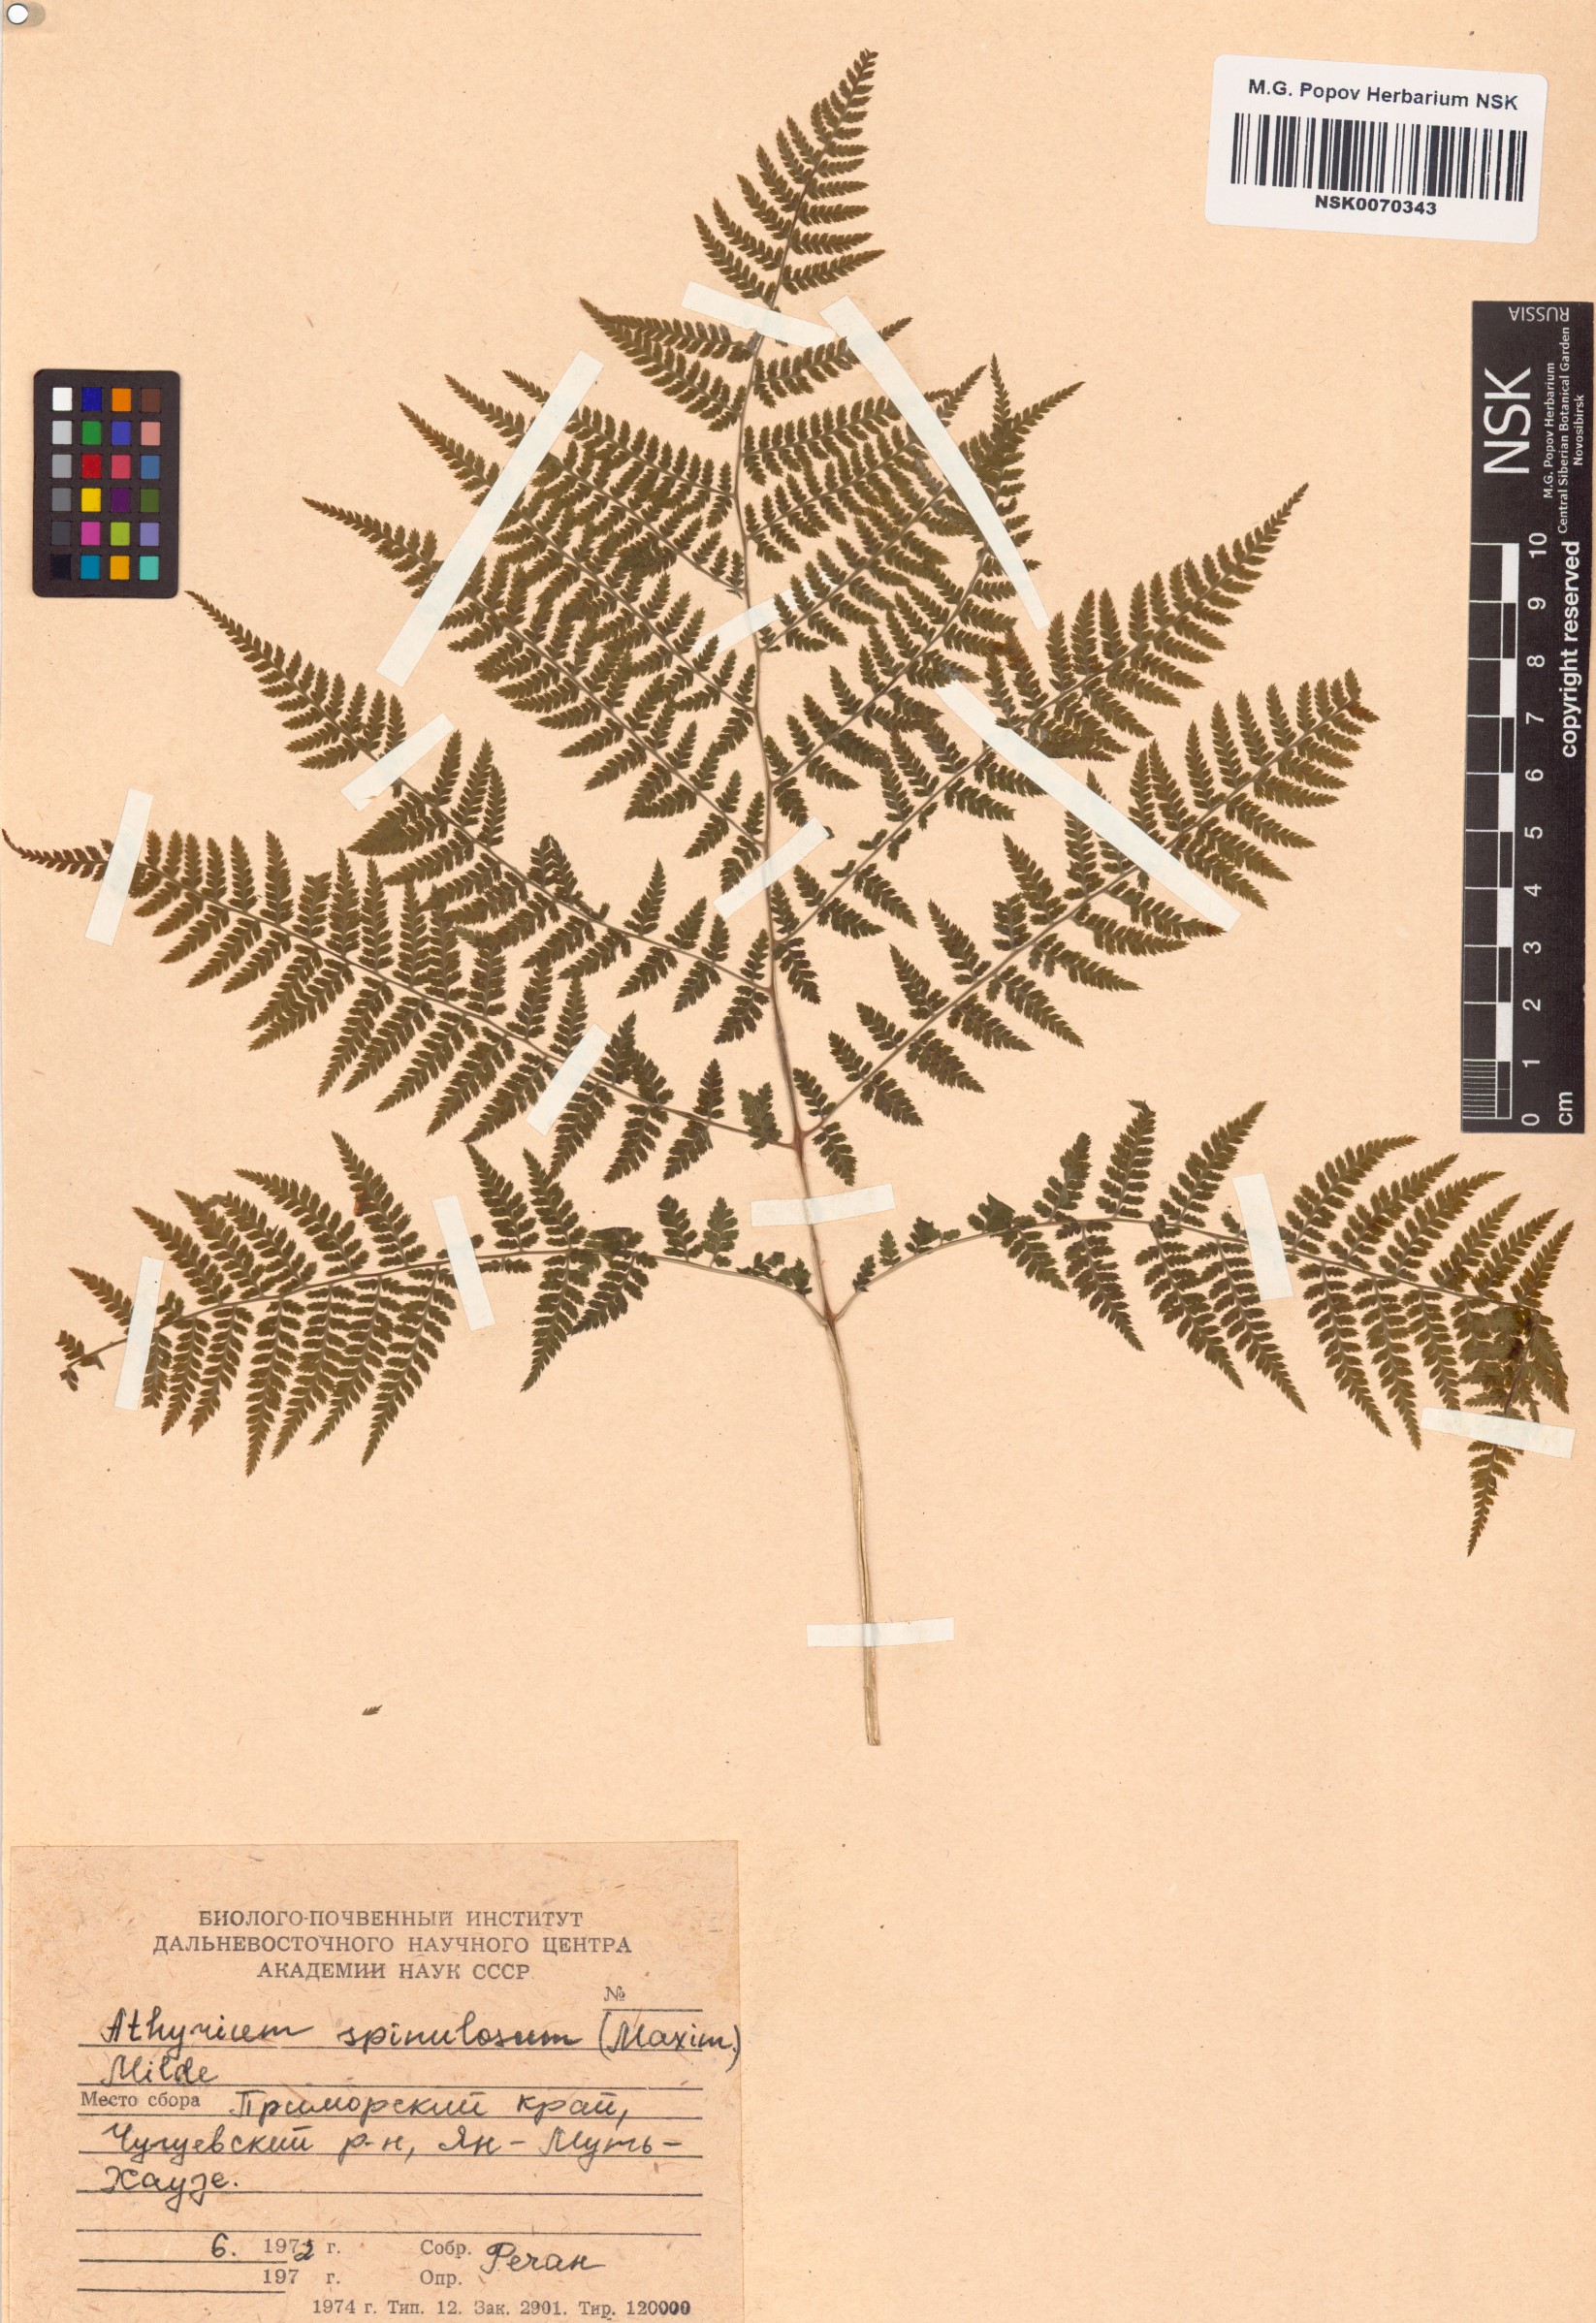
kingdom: Plantae
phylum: Tracheophyta
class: Polypodiopsida
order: Polypodiales
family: Athyriaceae
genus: Athyrium
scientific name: Athyrium spinulosum
